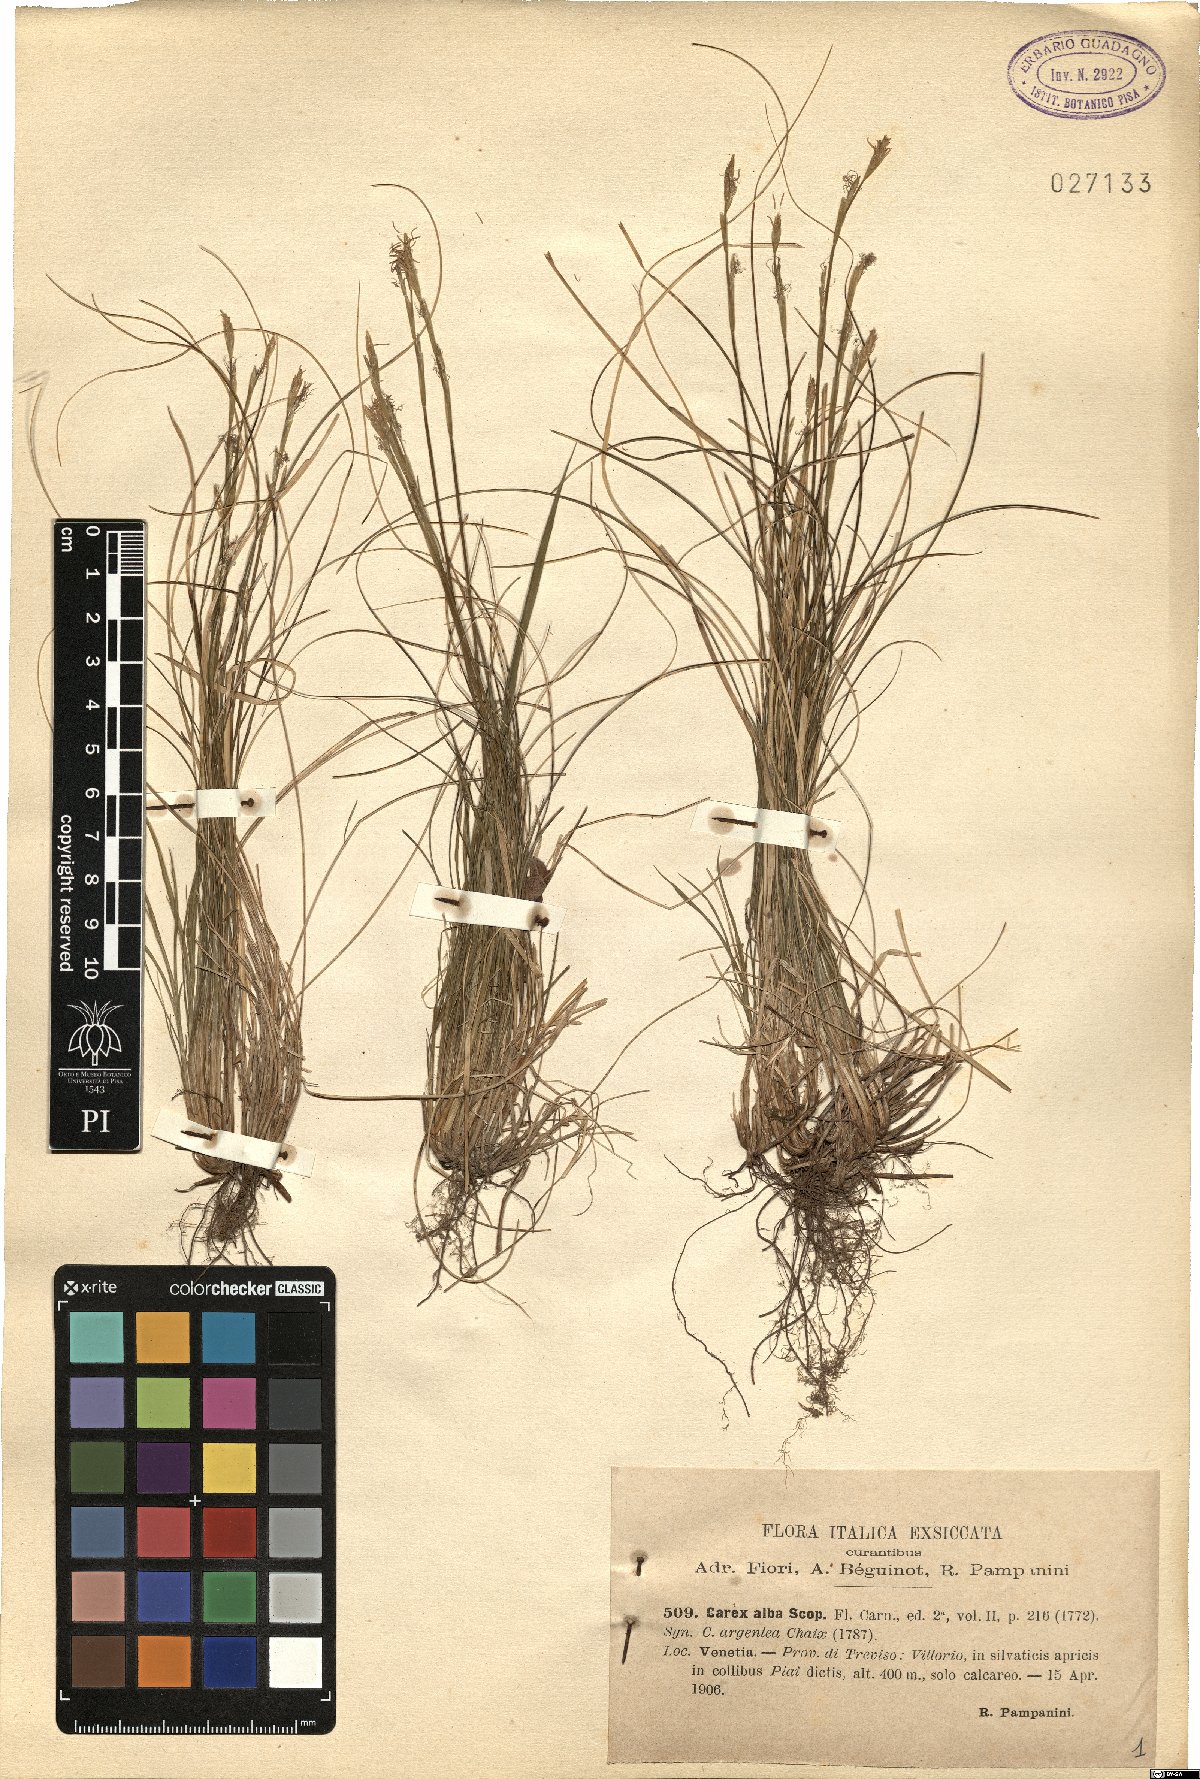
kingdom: Plantae
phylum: Tracheophyta
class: Liliopsida
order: Poales
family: Cyperaceae
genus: Carex
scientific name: Carex alba
